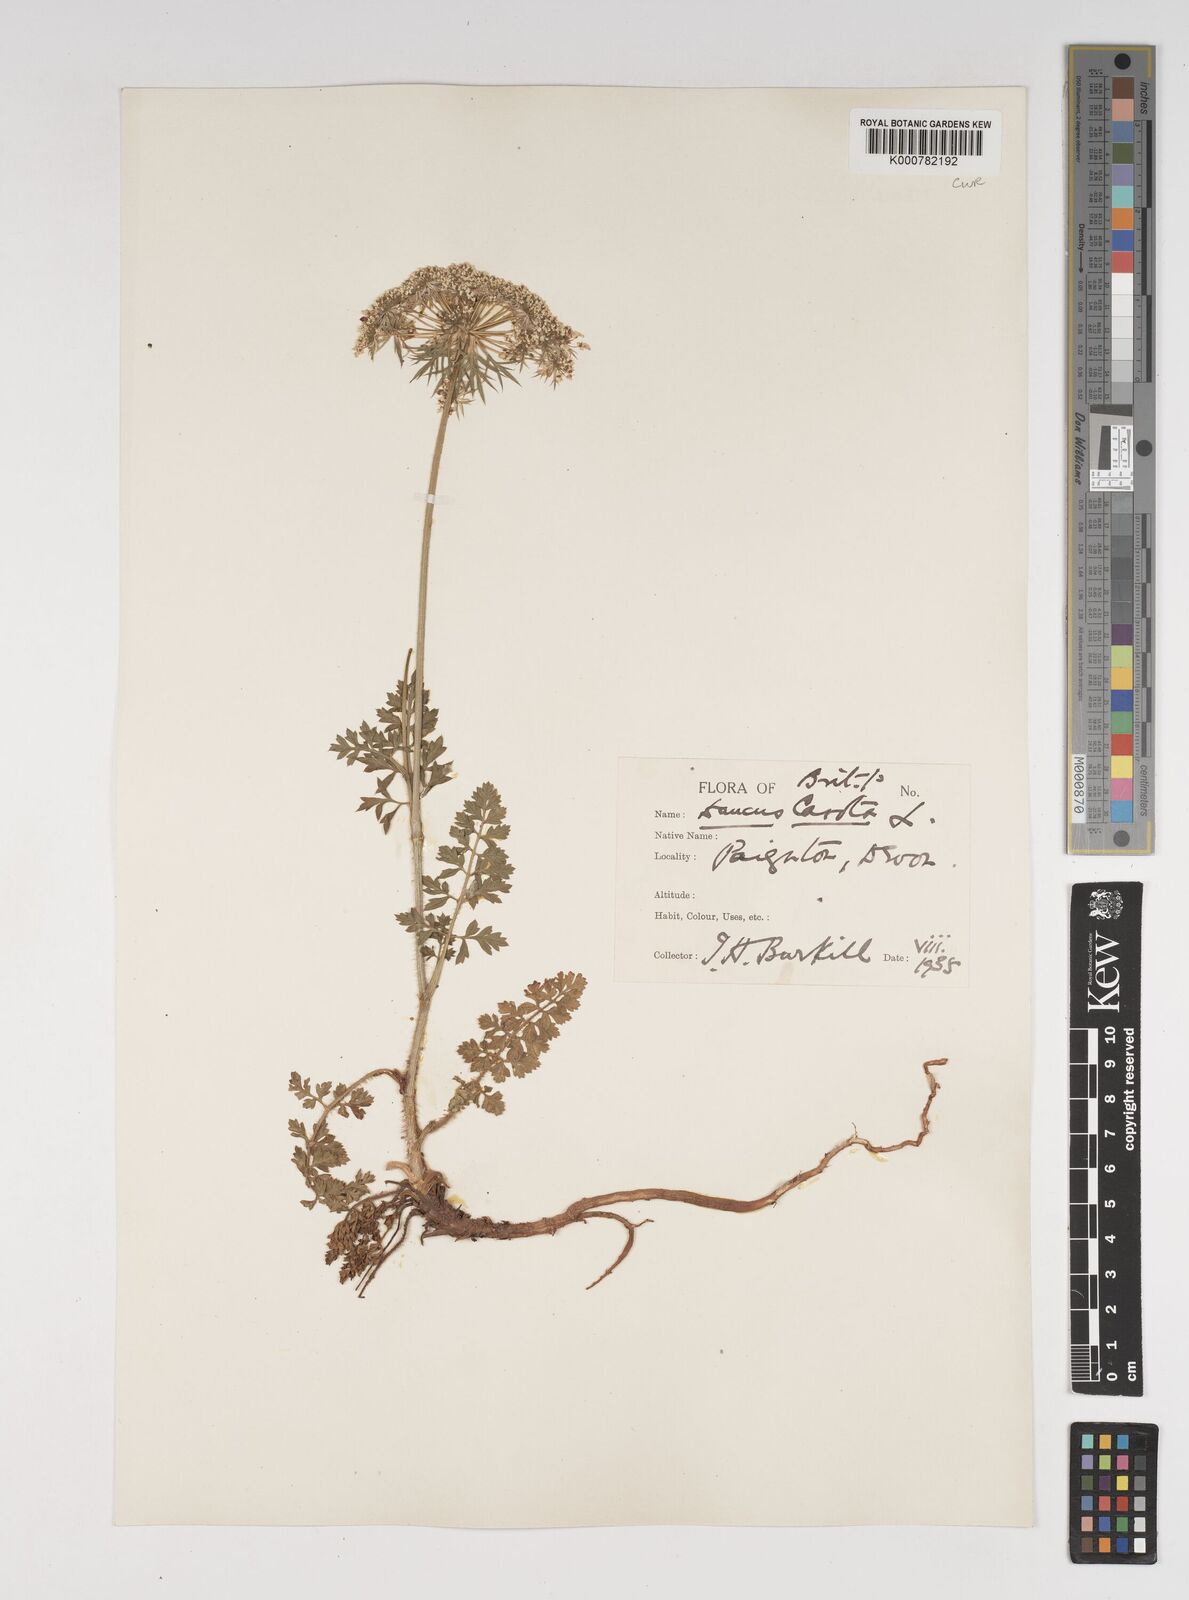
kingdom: Plantae
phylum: Tracheophyta
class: Magnoliopsida
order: Apiales
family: Apiaceae
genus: Daucus
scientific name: Daucus carota
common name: Wild carrot
